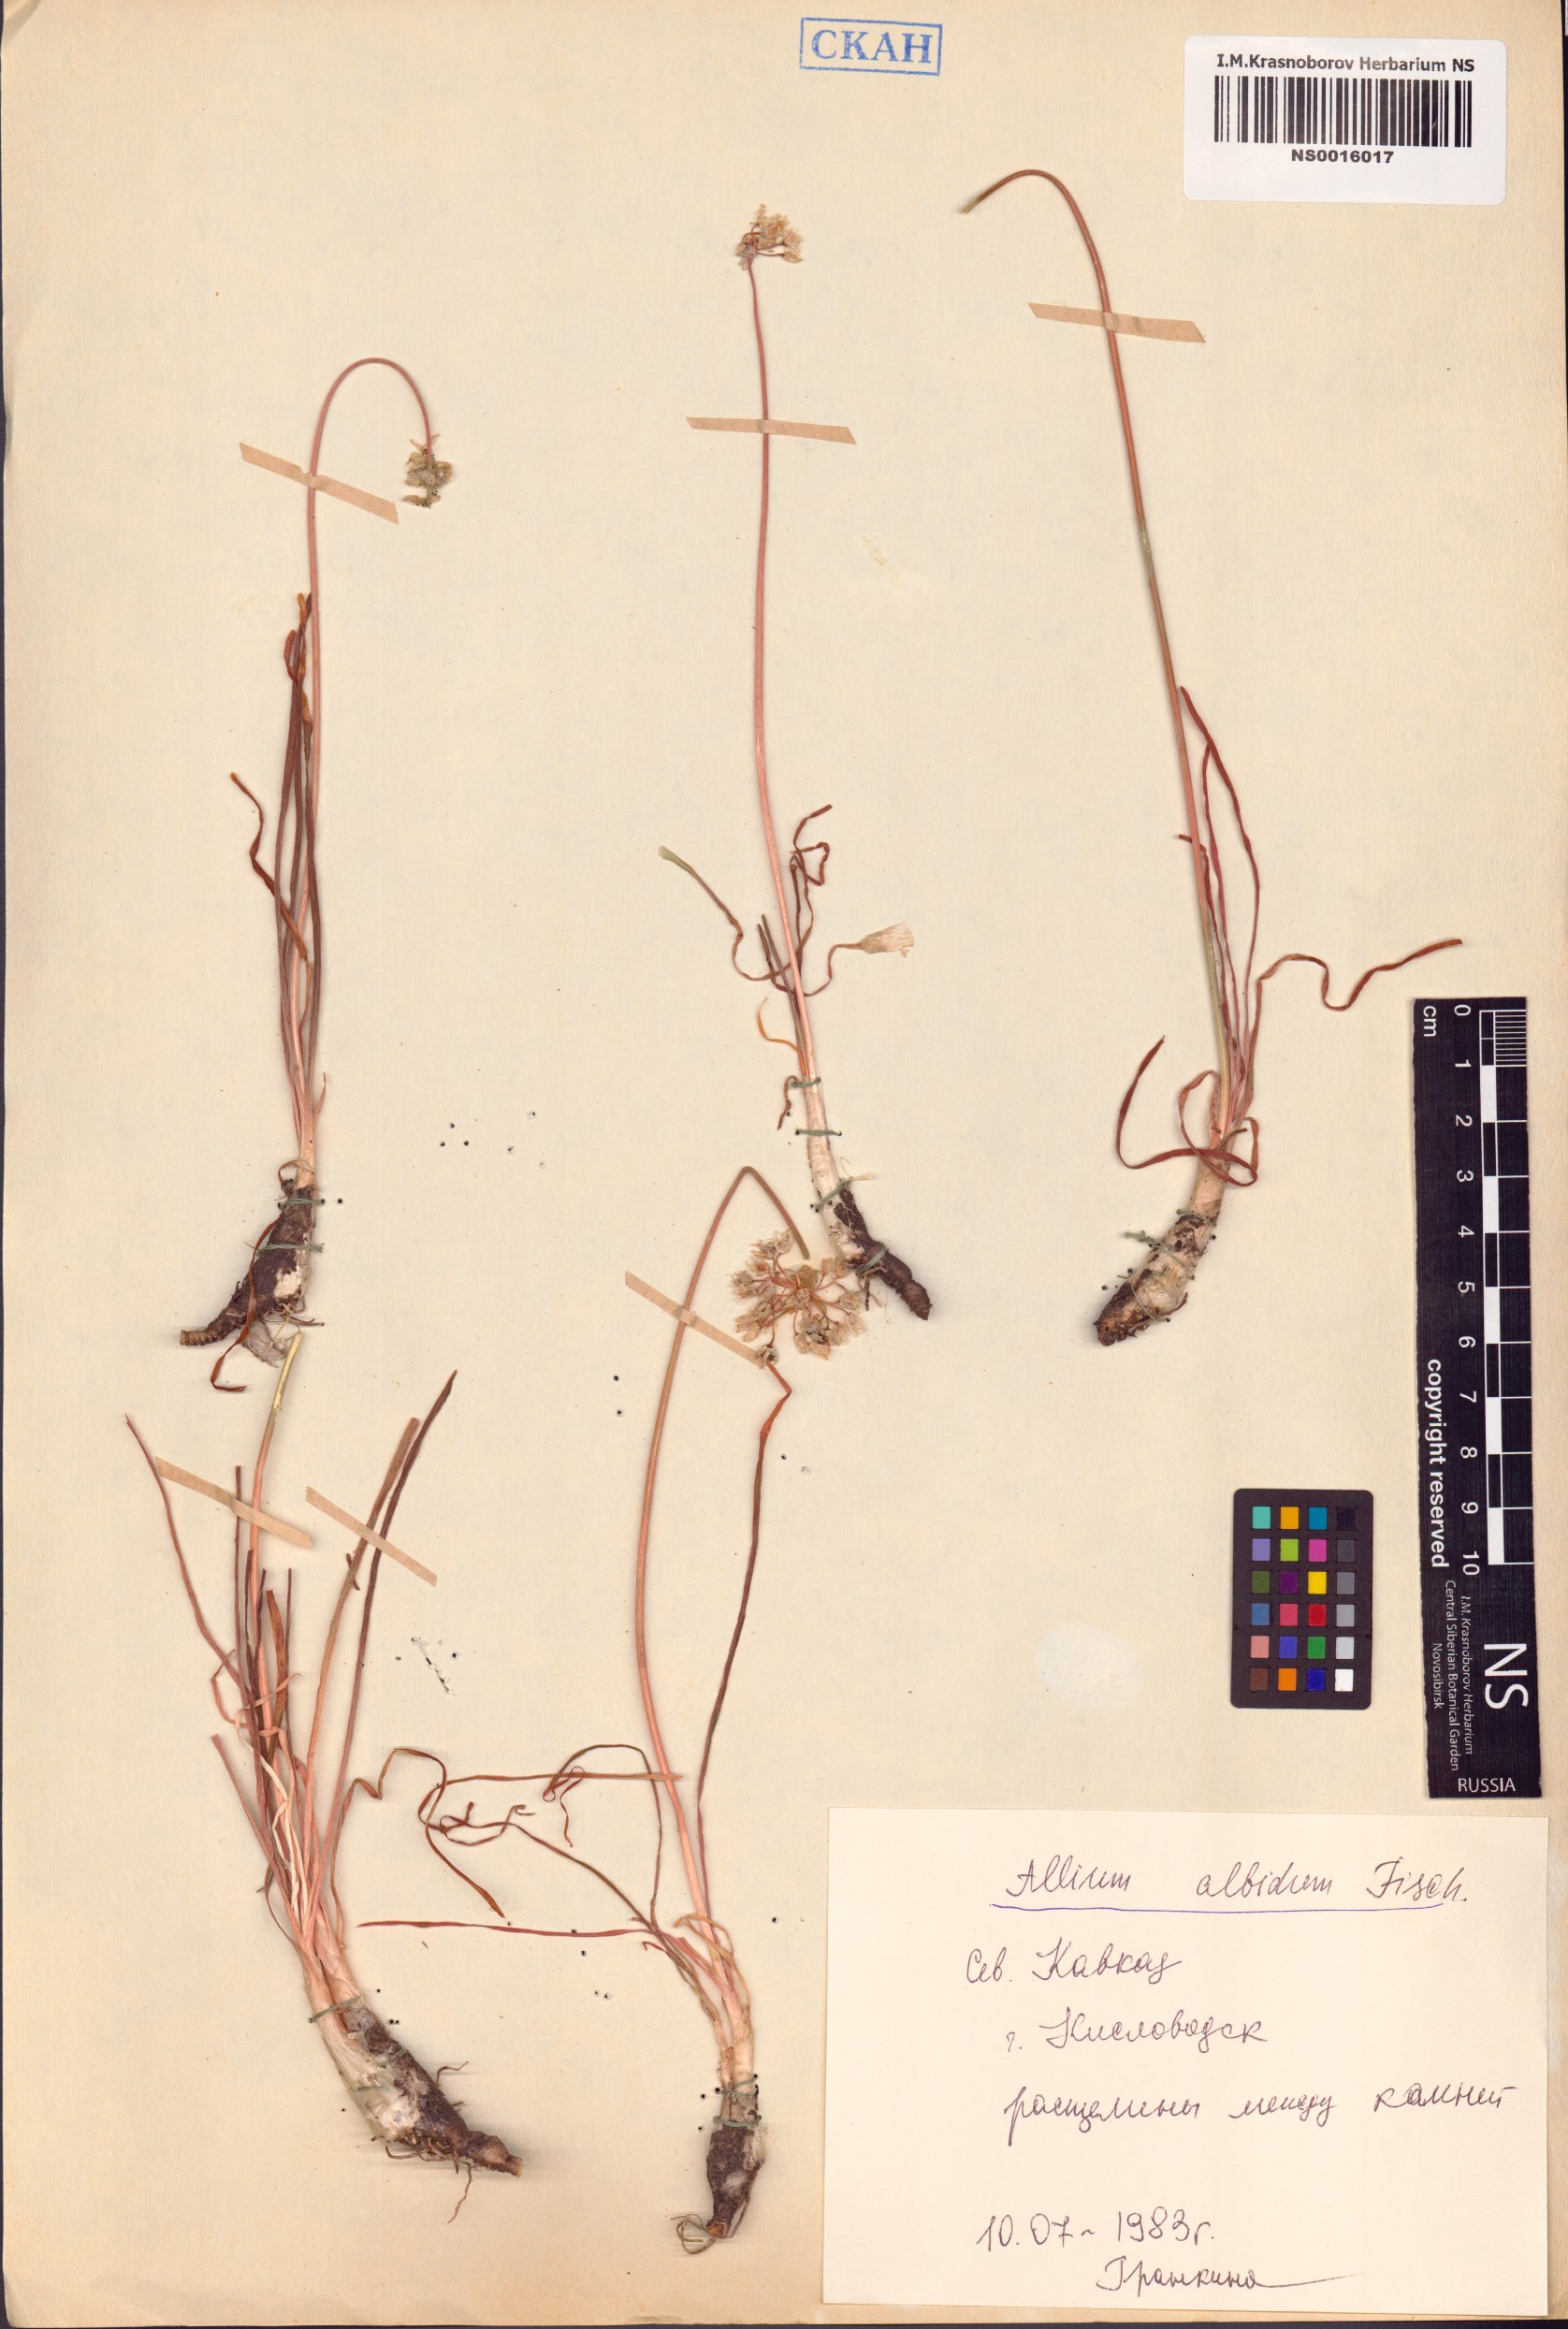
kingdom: Plantae
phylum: Tracheophyta
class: Liliopsida
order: Asparagales
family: Amaryllidaceae
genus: Allium
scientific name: Allium denudatum
